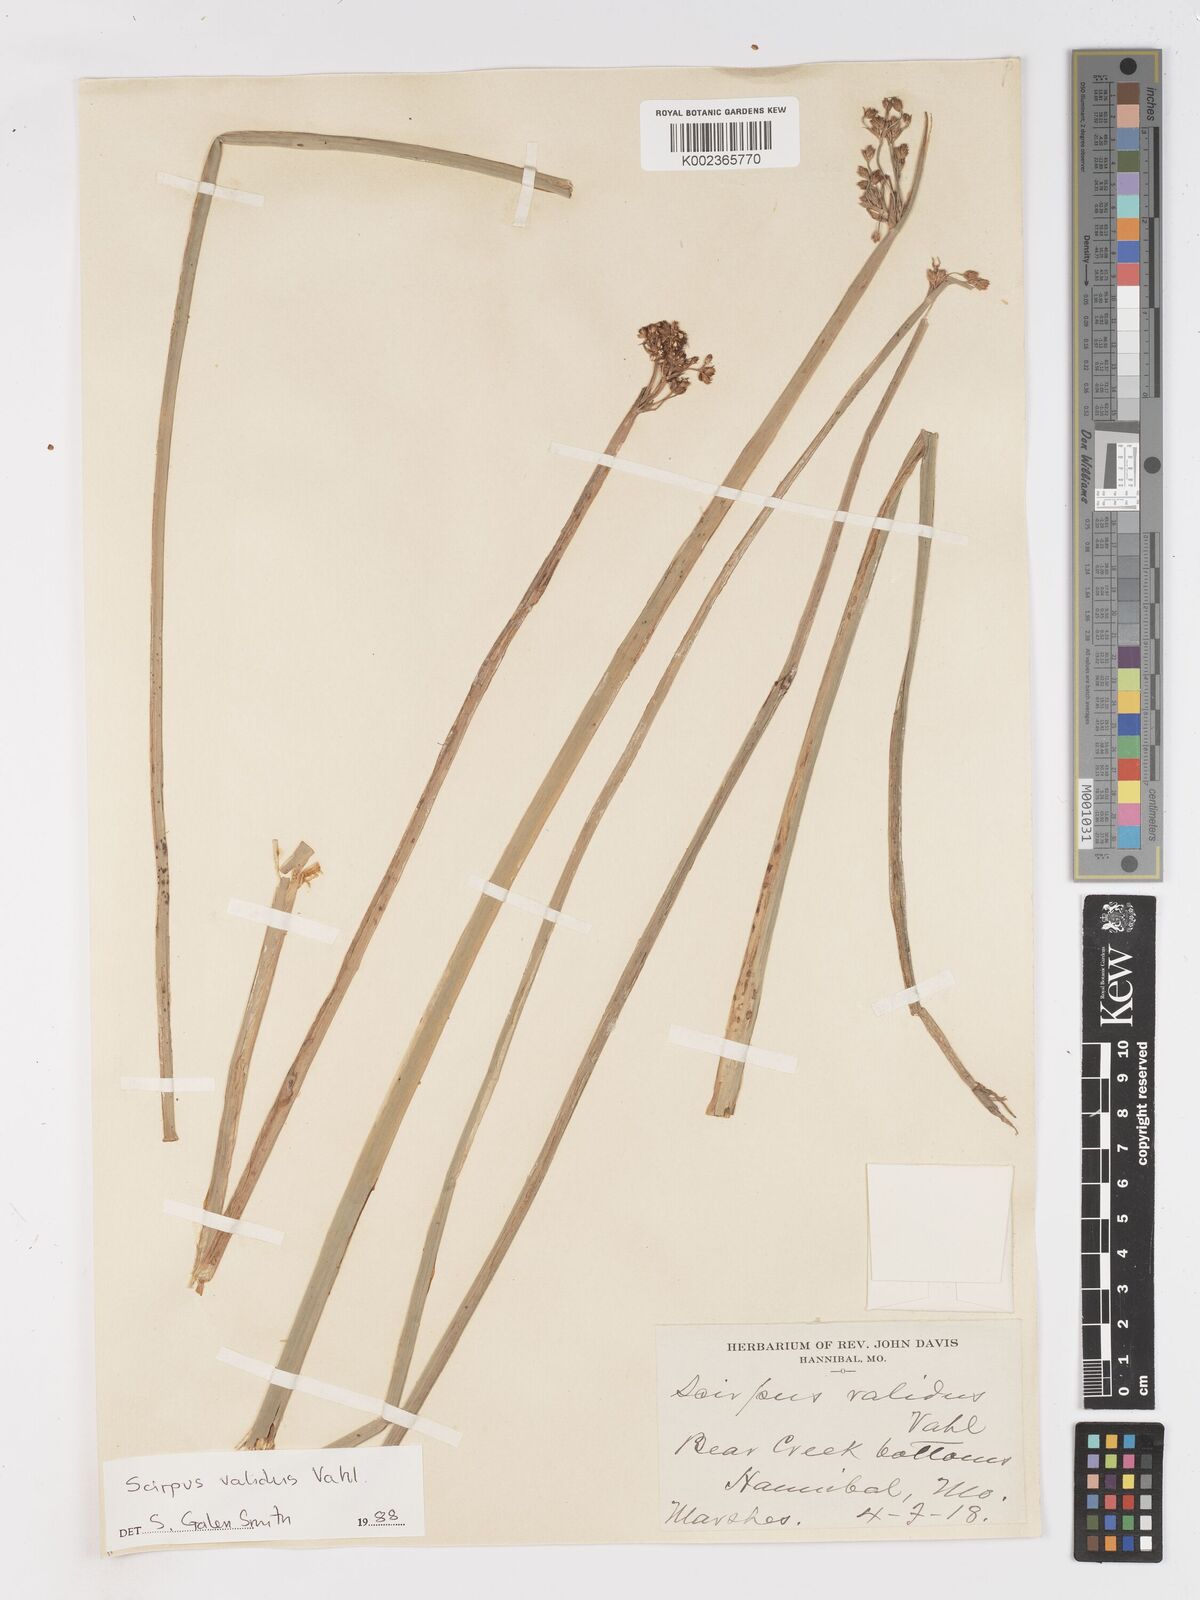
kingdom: Plantae
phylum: Tracheophyta
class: Liliopsida
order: Poales
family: Cyperaceae
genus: Schoenoplectus
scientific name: Schoenoplectus tabernaemontani
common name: Grey club-rush
